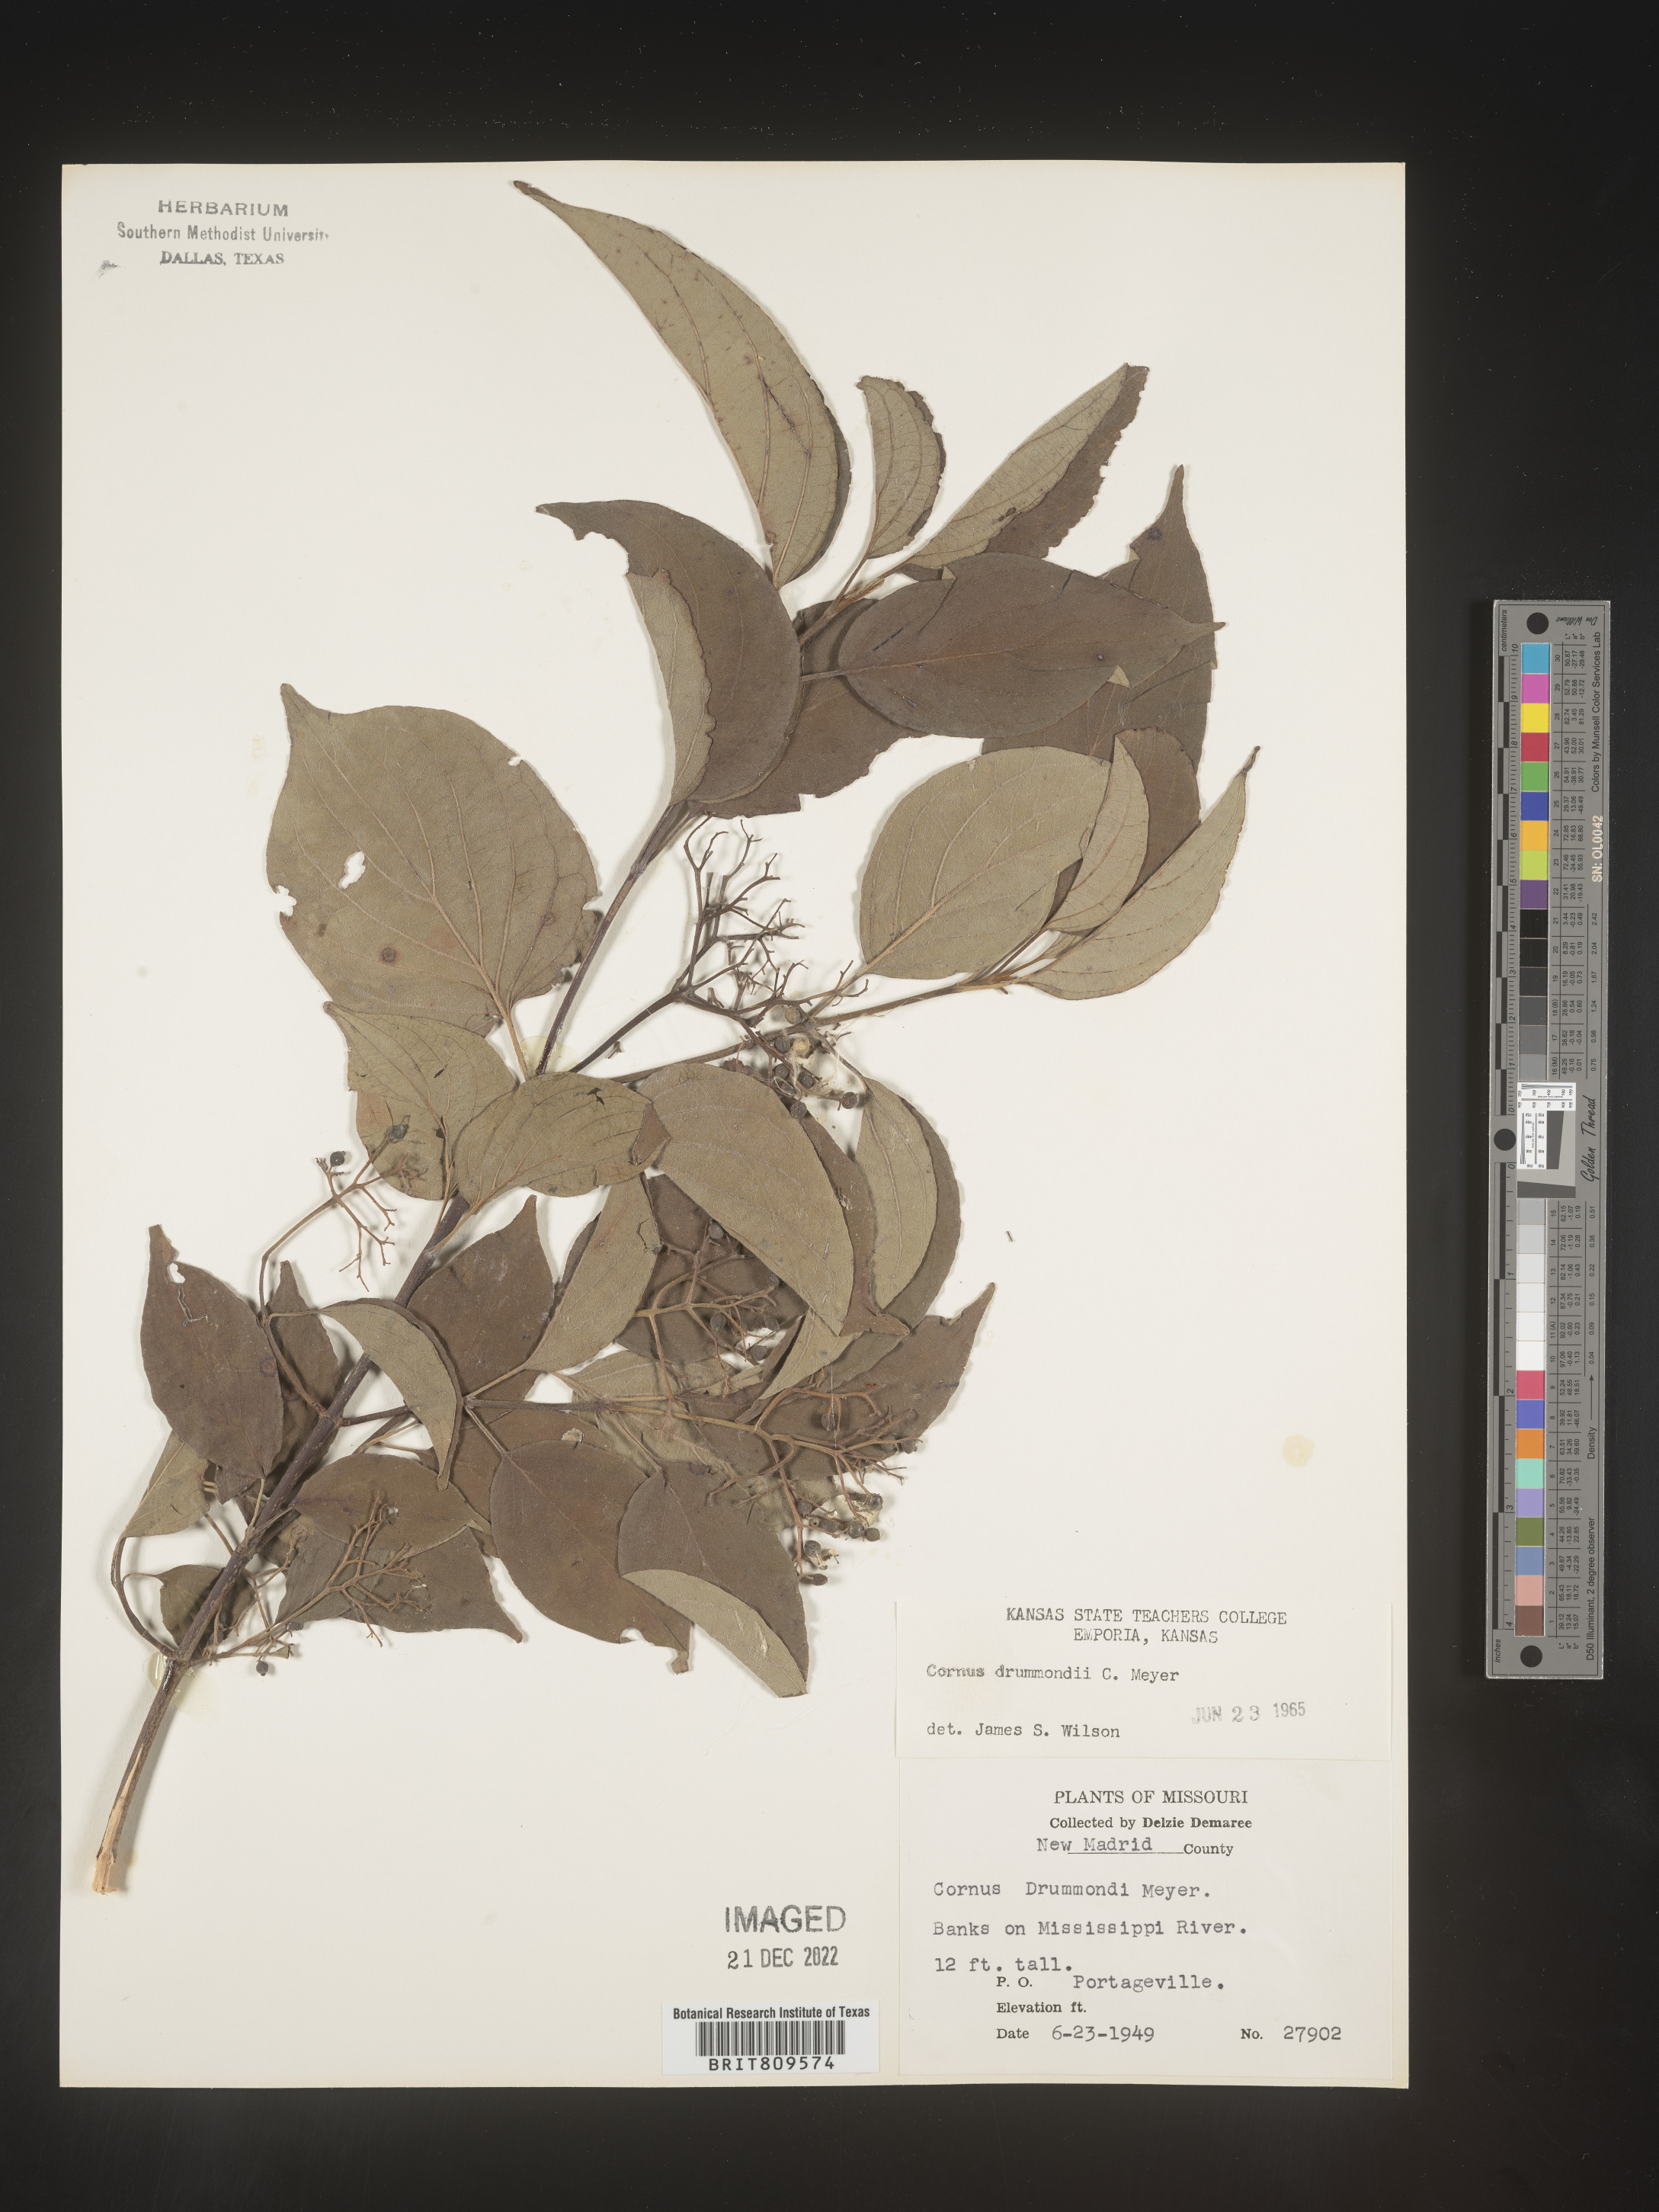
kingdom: Plantae
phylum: Tracheophyta
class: Magnoliopsida
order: Cornales
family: Cornaceae
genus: Cornus
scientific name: Cornus drummondii
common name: Rough-leaf dogwood
